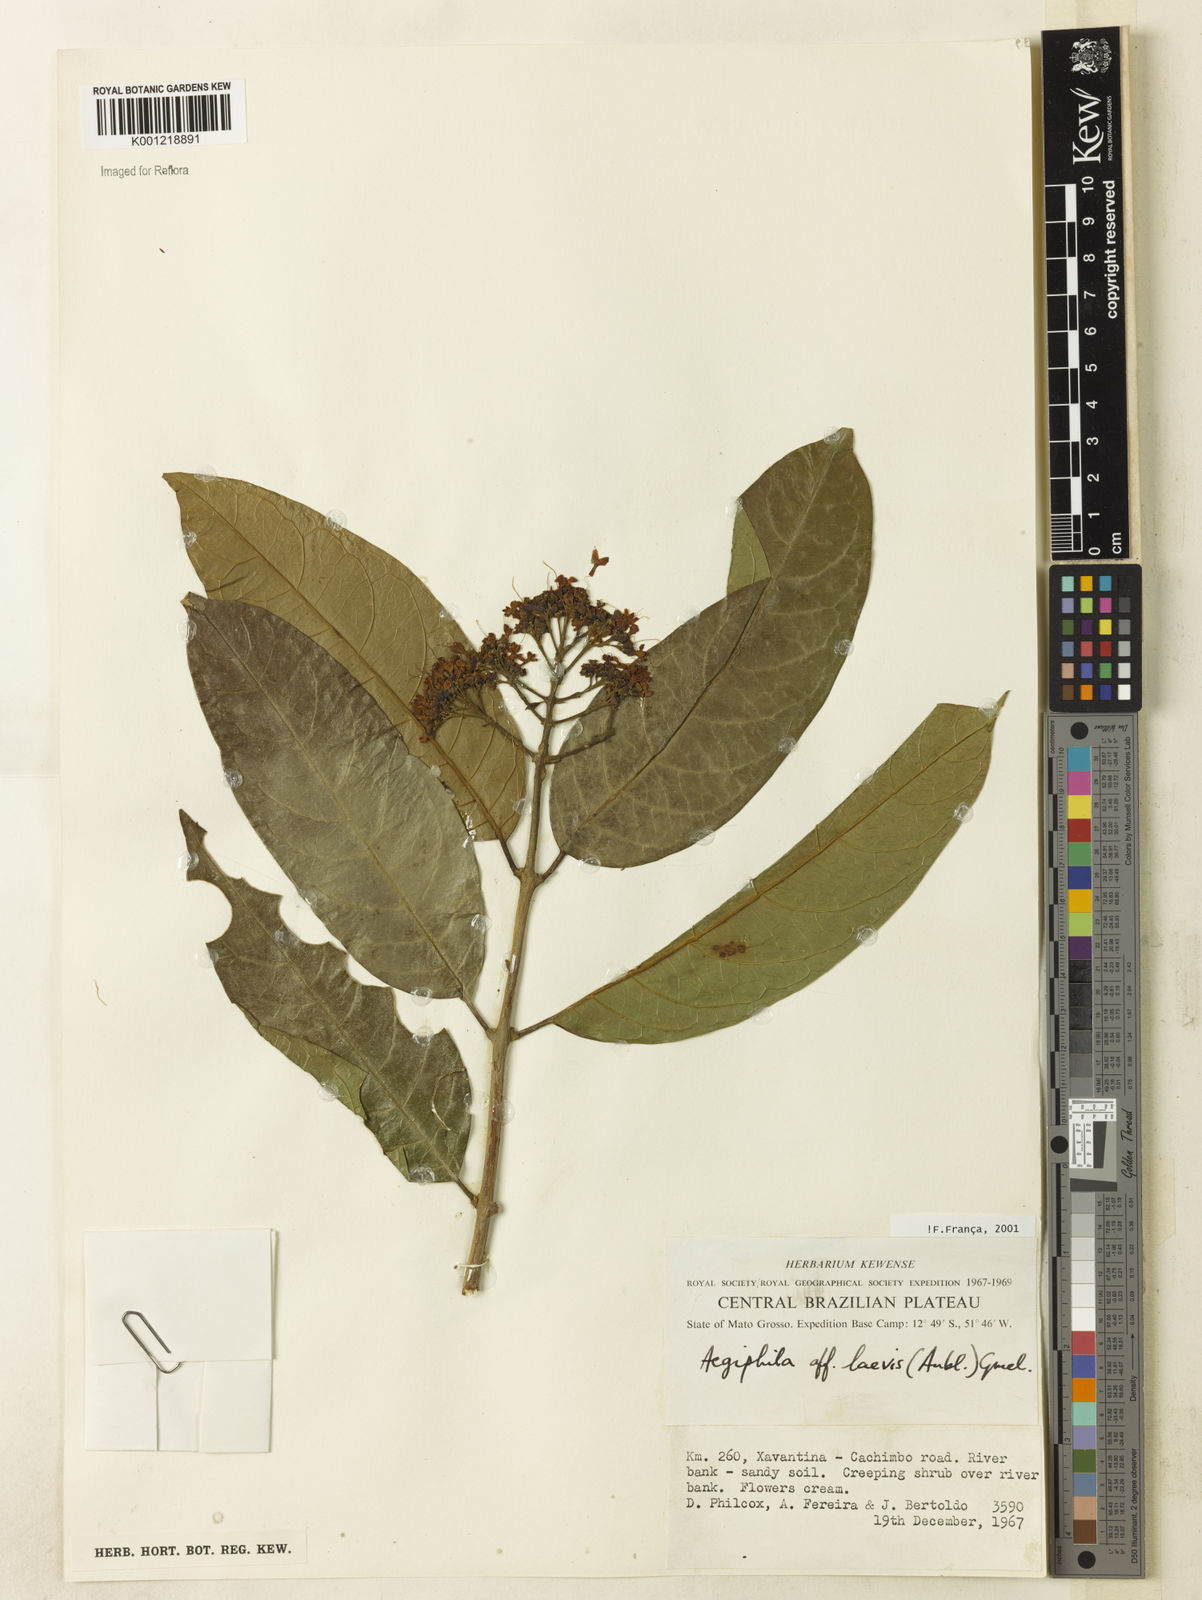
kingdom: Plantae
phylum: Tracheophyta
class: Magnoliopsida
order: Lamiales
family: Lamiaceae
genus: Aegiphila
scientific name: Aegiphila laevis
